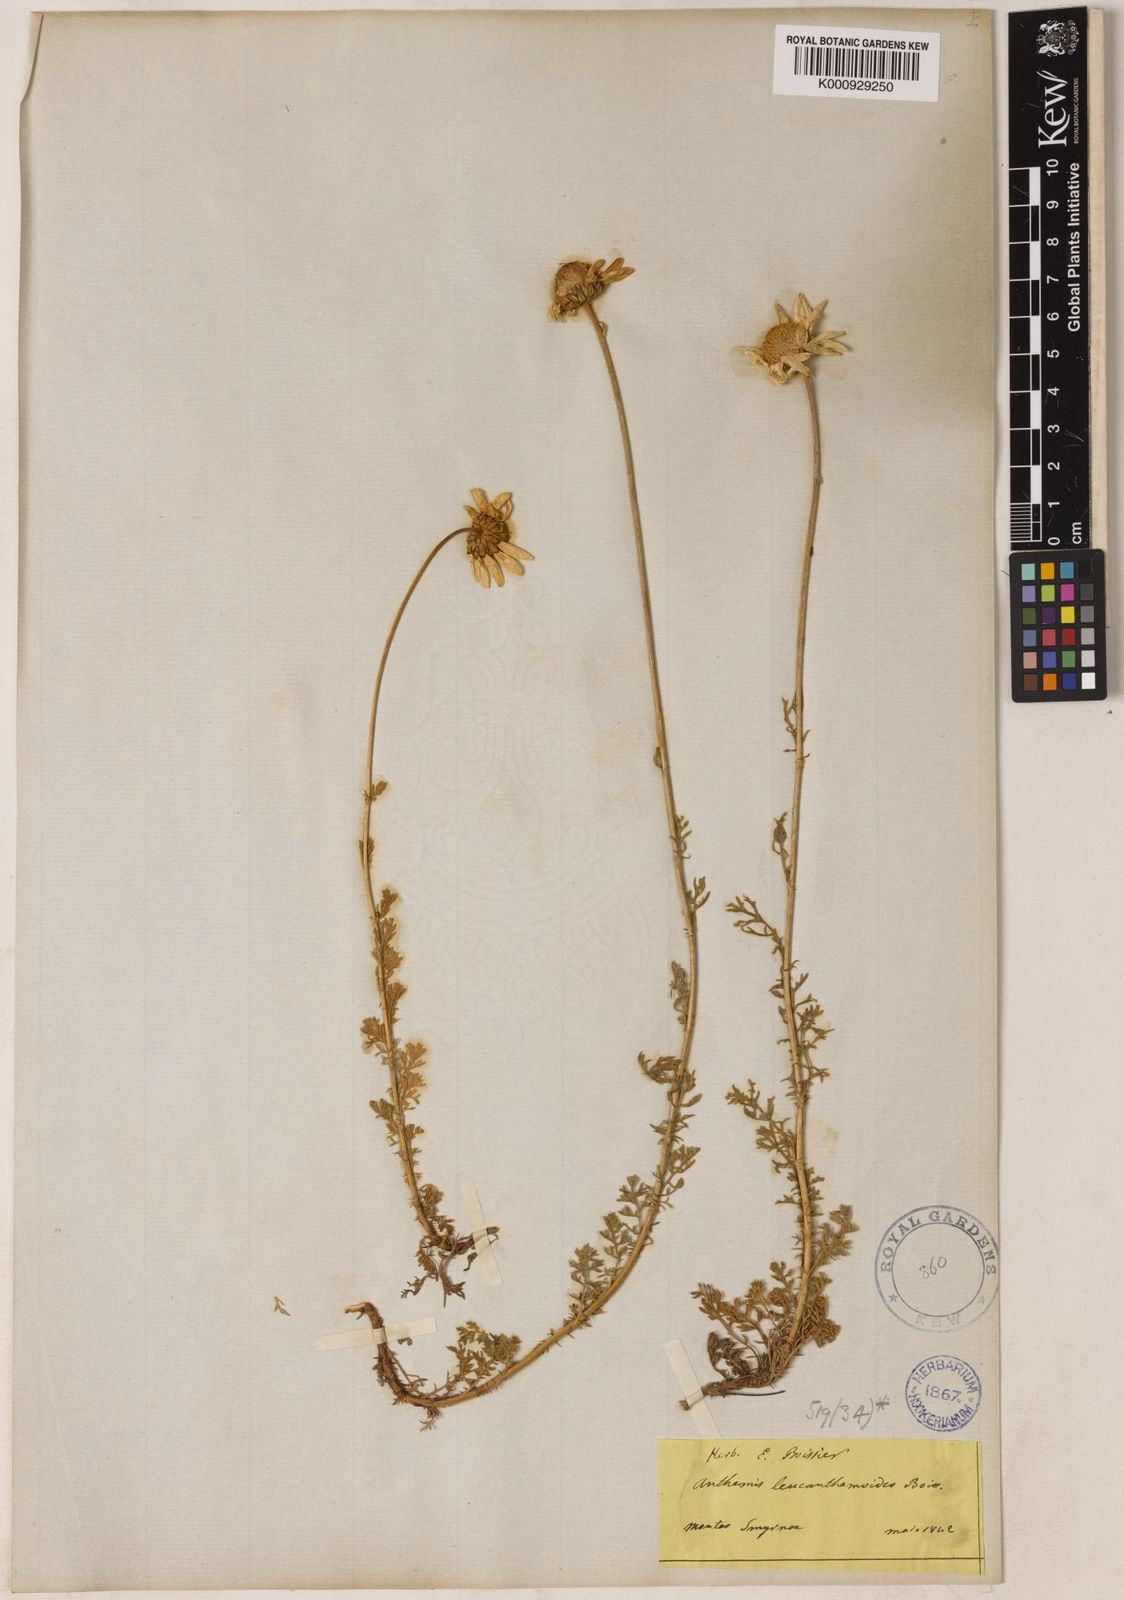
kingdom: Plantae
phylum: Tracheophyta
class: Magnoliopsida
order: Asterales
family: Asteraceae
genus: Anthemis
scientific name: Anthemis cretica
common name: Mountain dog-daisy
